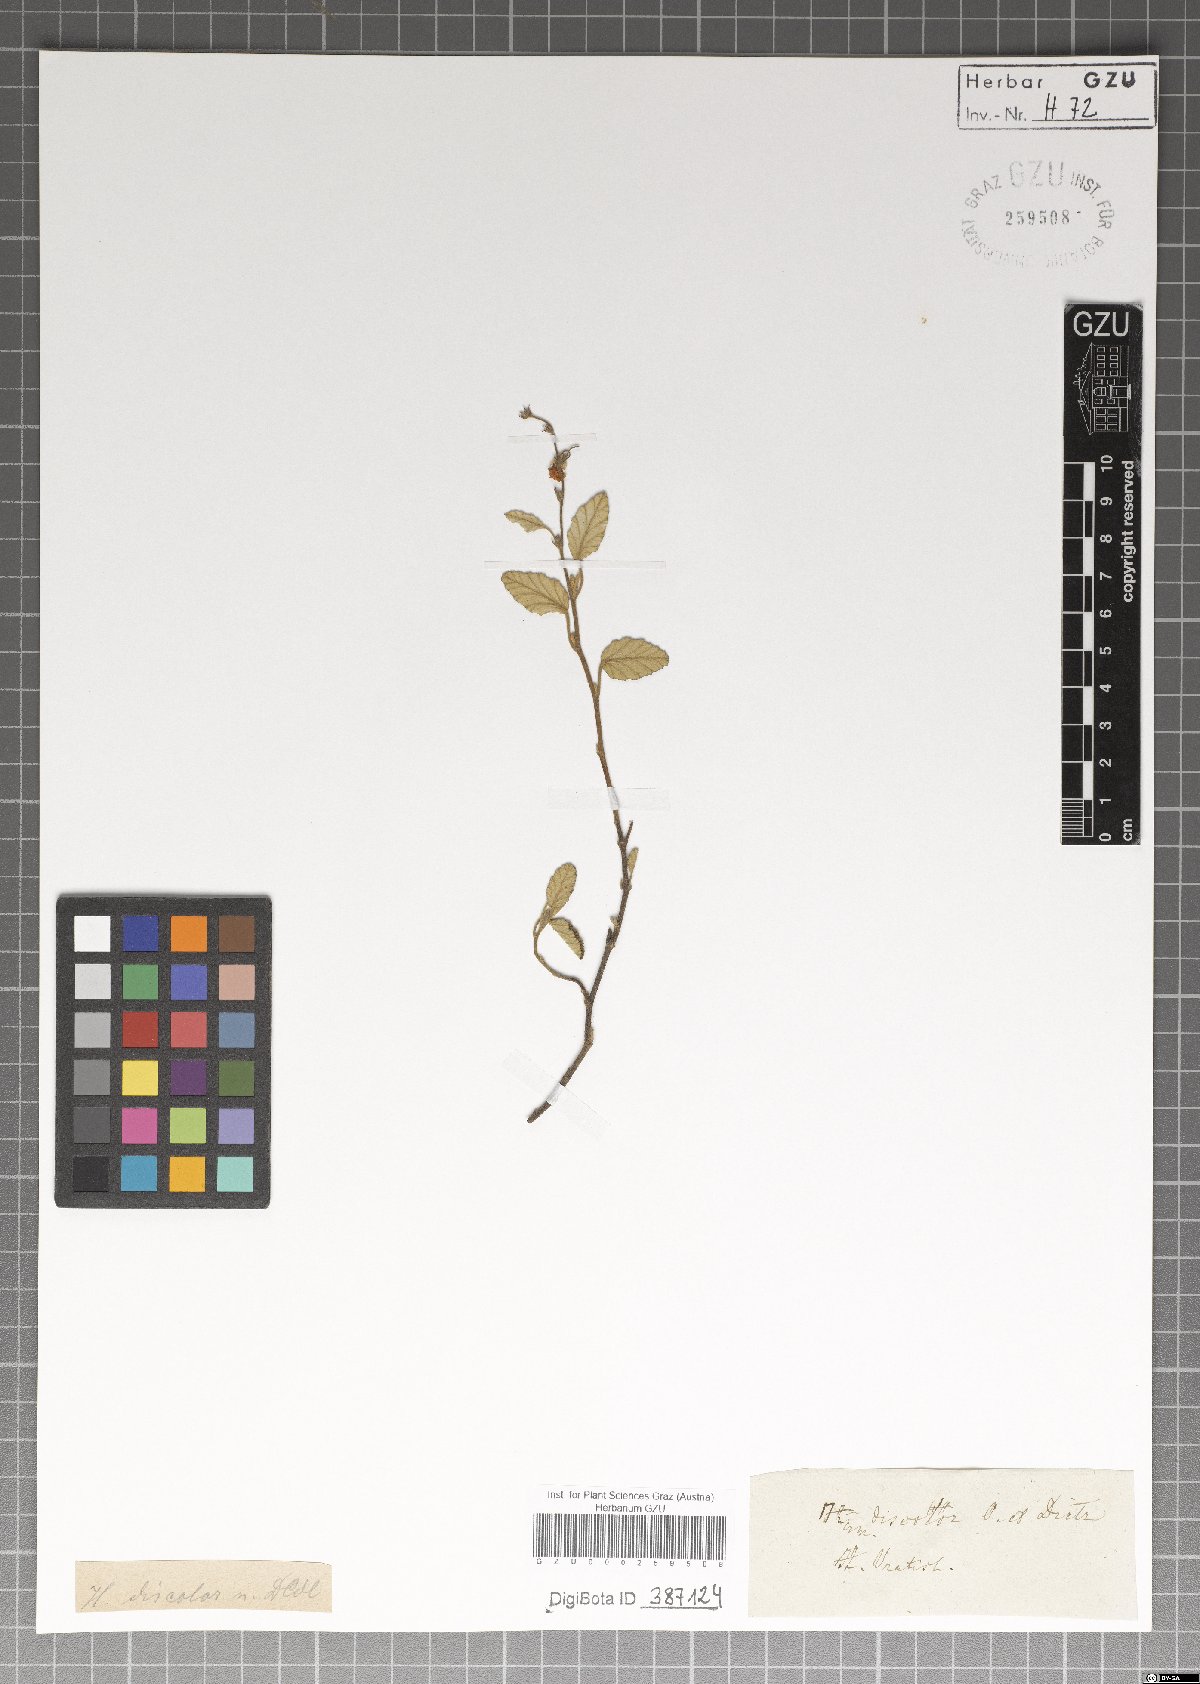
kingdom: Plantae
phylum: Tracheophyta
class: Magnoliopsida
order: Malvales
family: Malvaceae
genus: Hermannia
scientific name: Hermannia discolor
